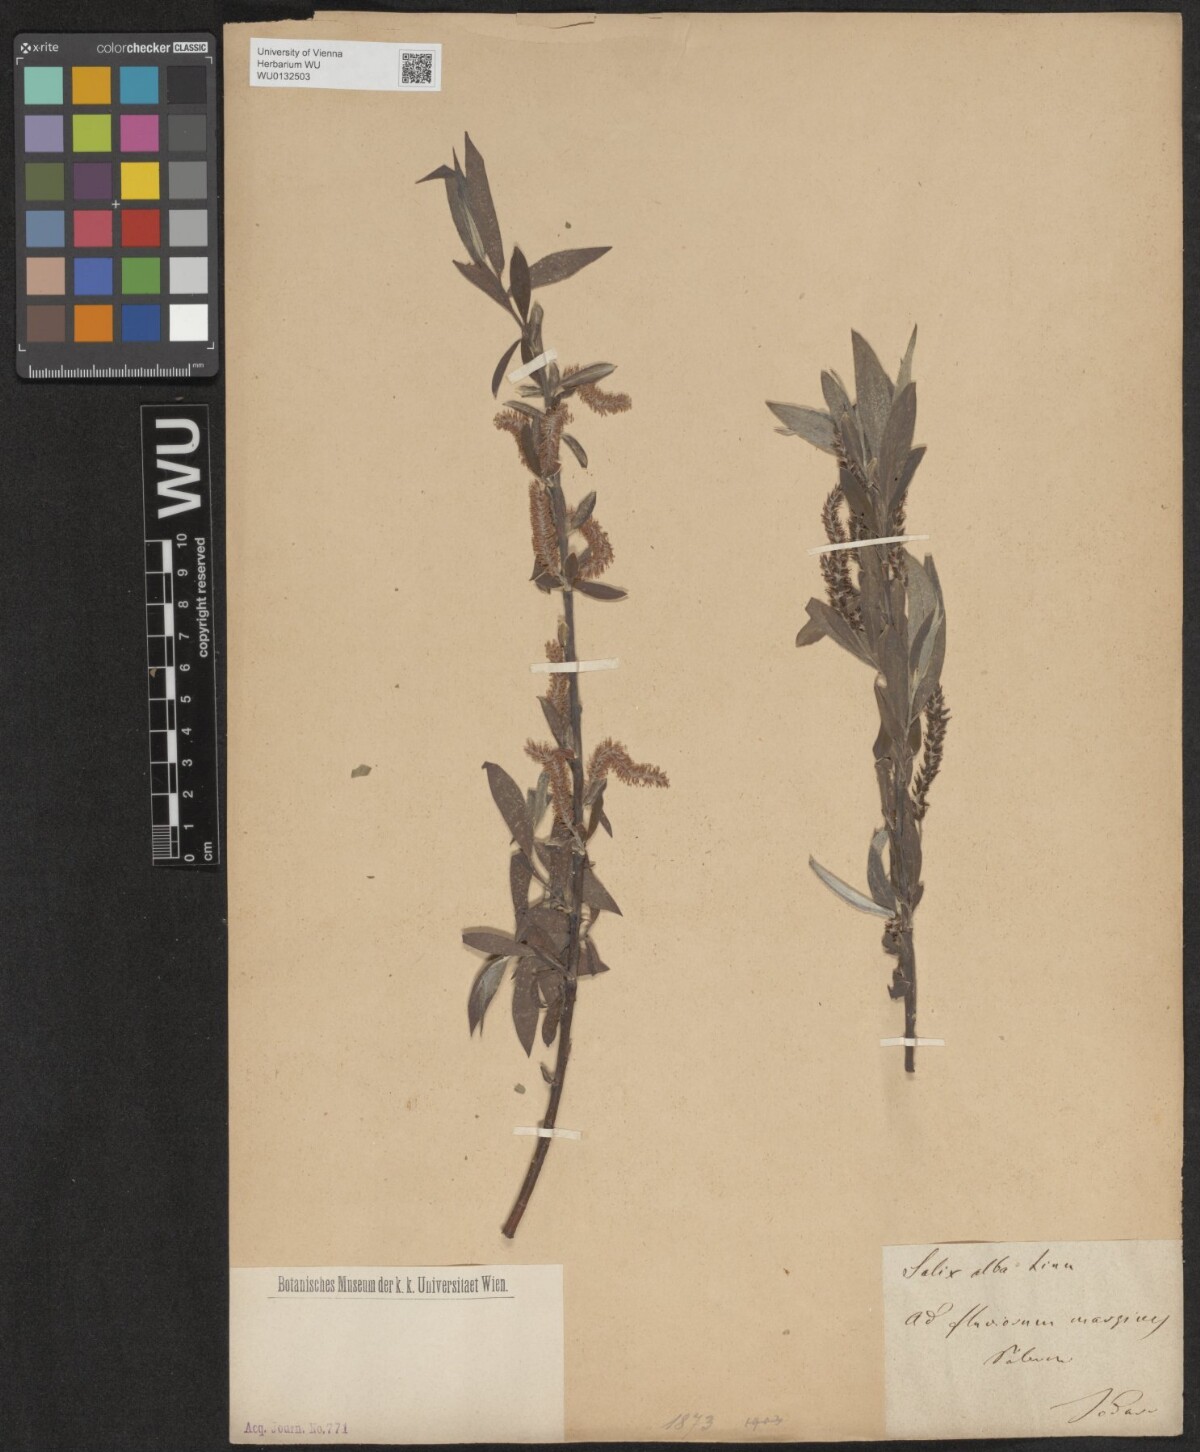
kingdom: Plantae
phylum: Tracheophyta
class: Magnoliopsida
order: Malpighiales
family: Salicaceae
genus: Salix
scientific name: Salix alba
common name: White willow
